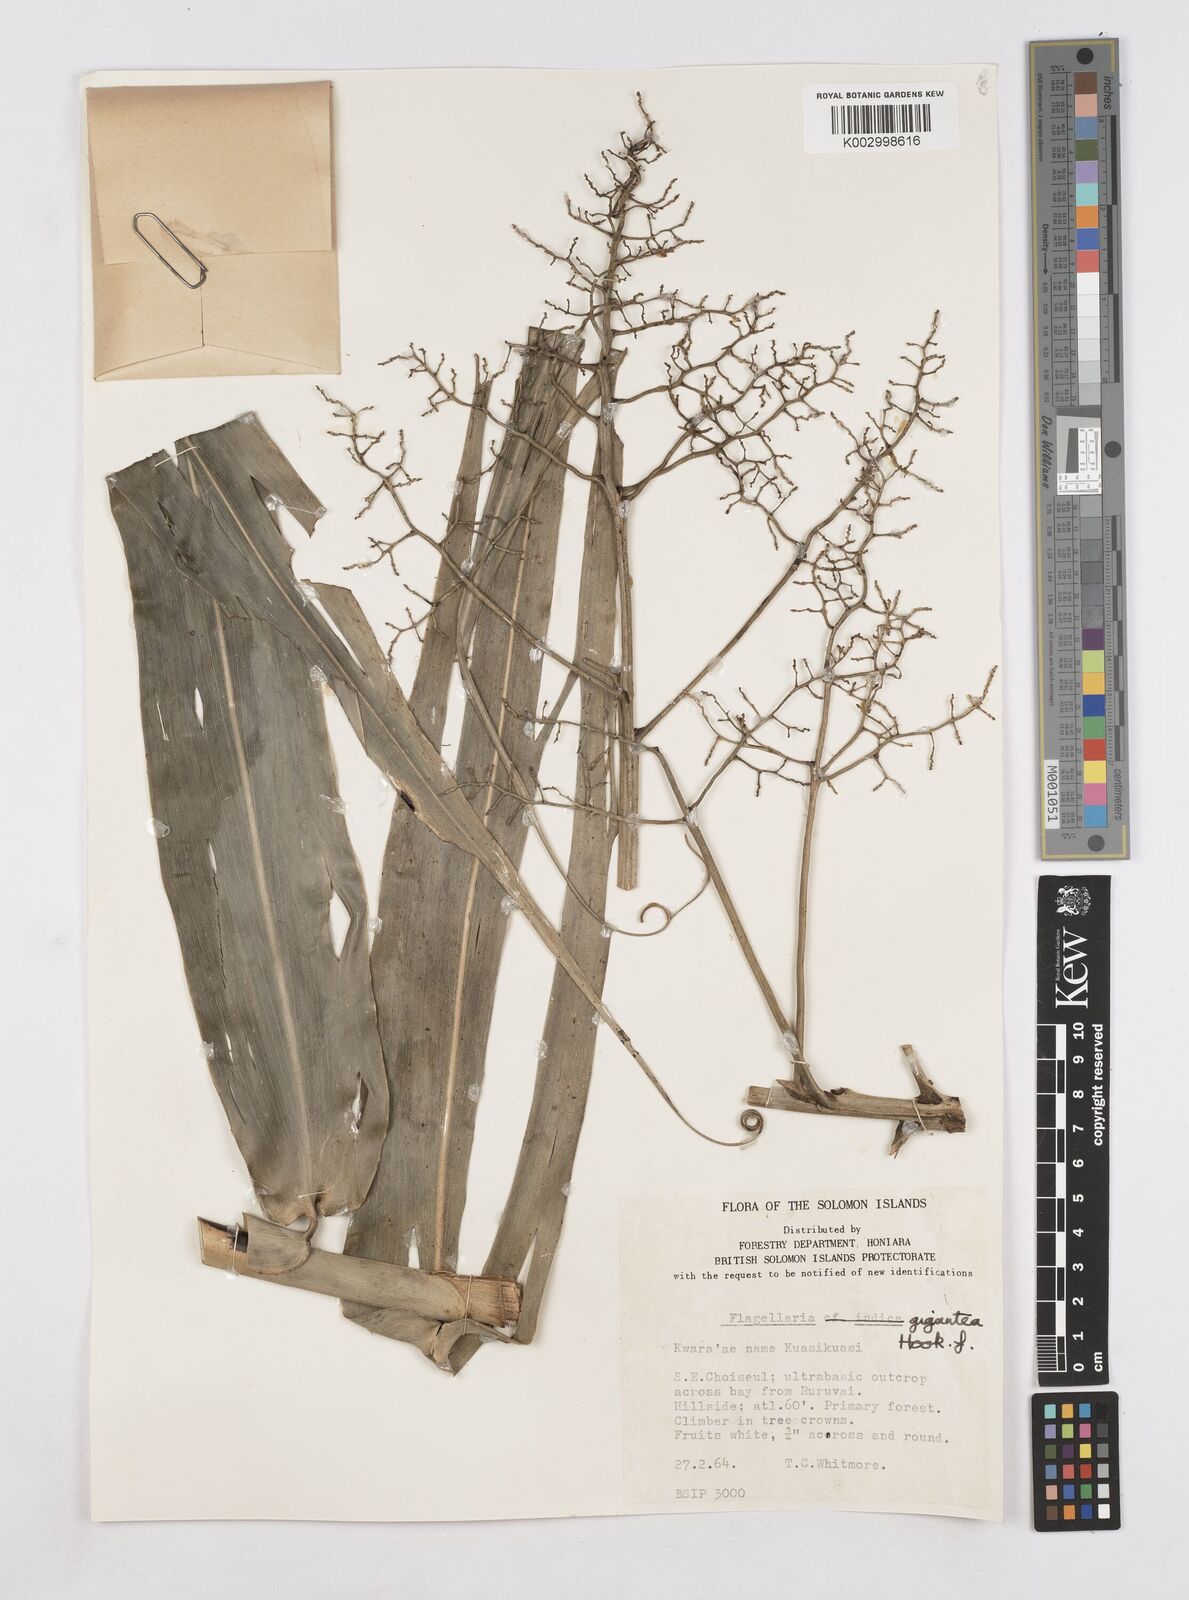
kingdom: Plantae
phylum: Tracheophyta
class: Liliopsida
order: Poales
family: Flagellariaceae
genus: Flagellaria
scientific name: Flagellaria gigantea
